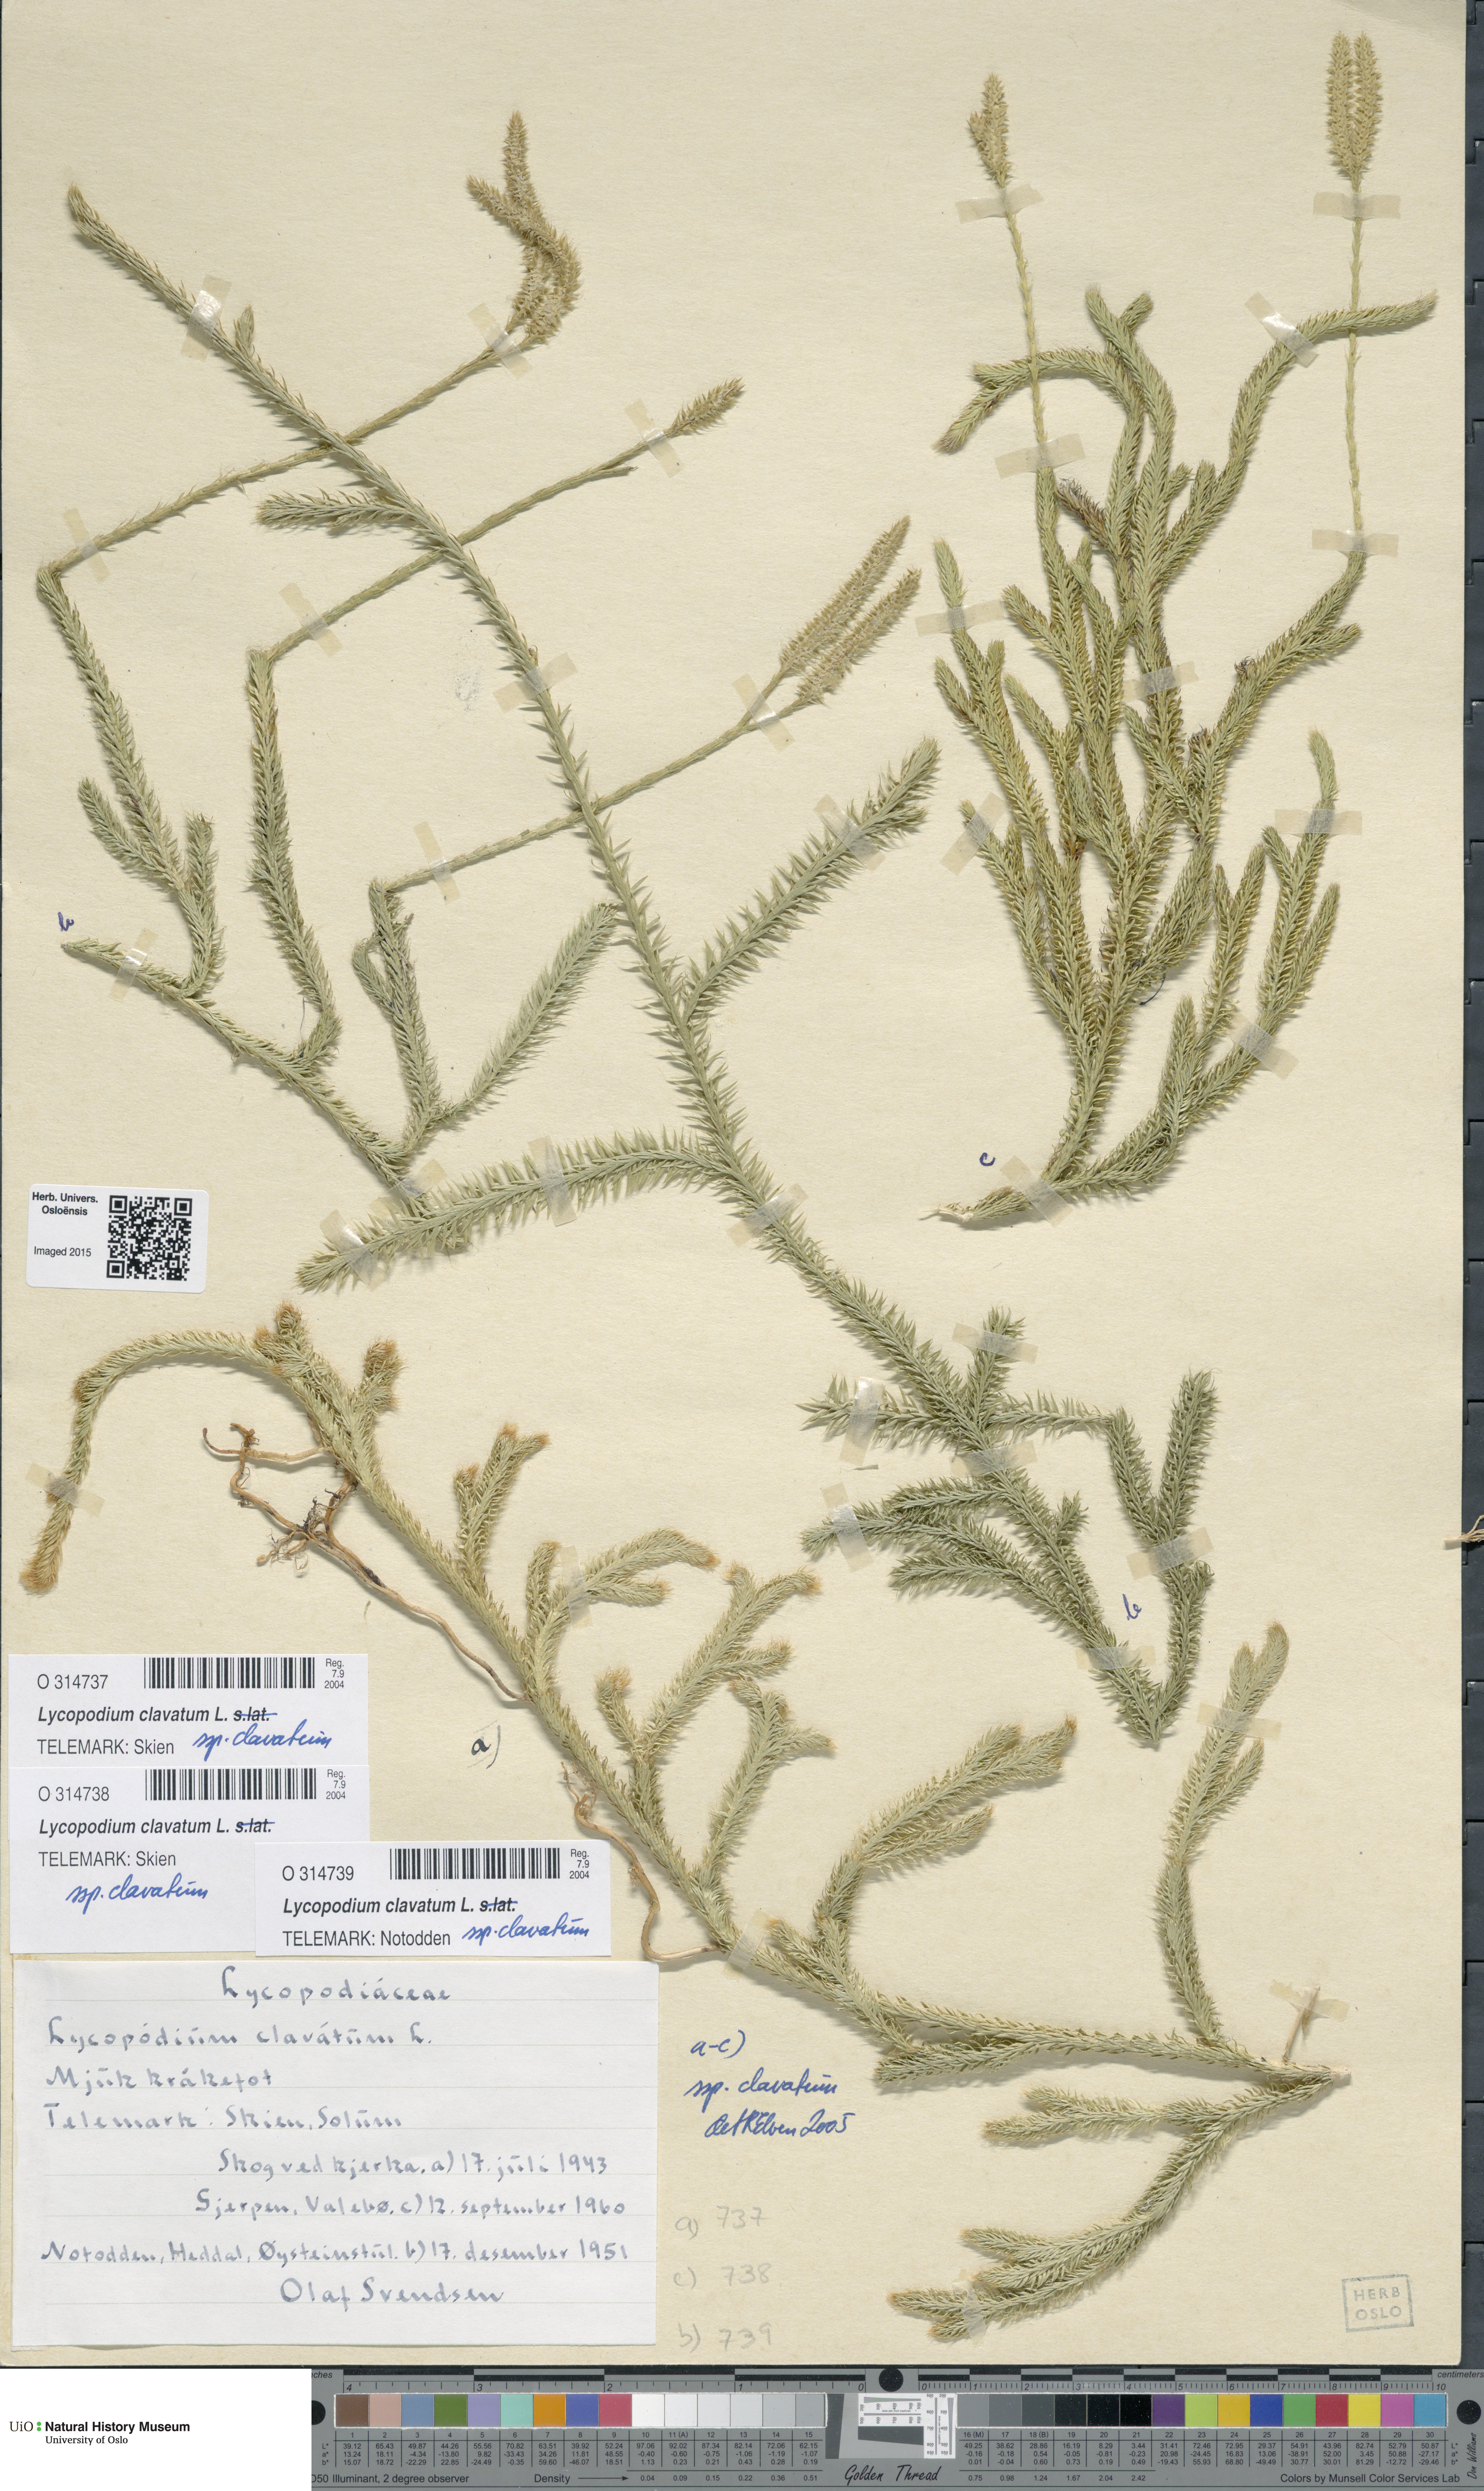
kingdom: Plantae
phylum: Tracheophyta
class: Lycopodiopsida
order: Lycopodiales
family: Lycopodiaceae
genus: Lycopodium
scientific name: Lycopodium clavatum
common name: Stag's-horn clubmoss
